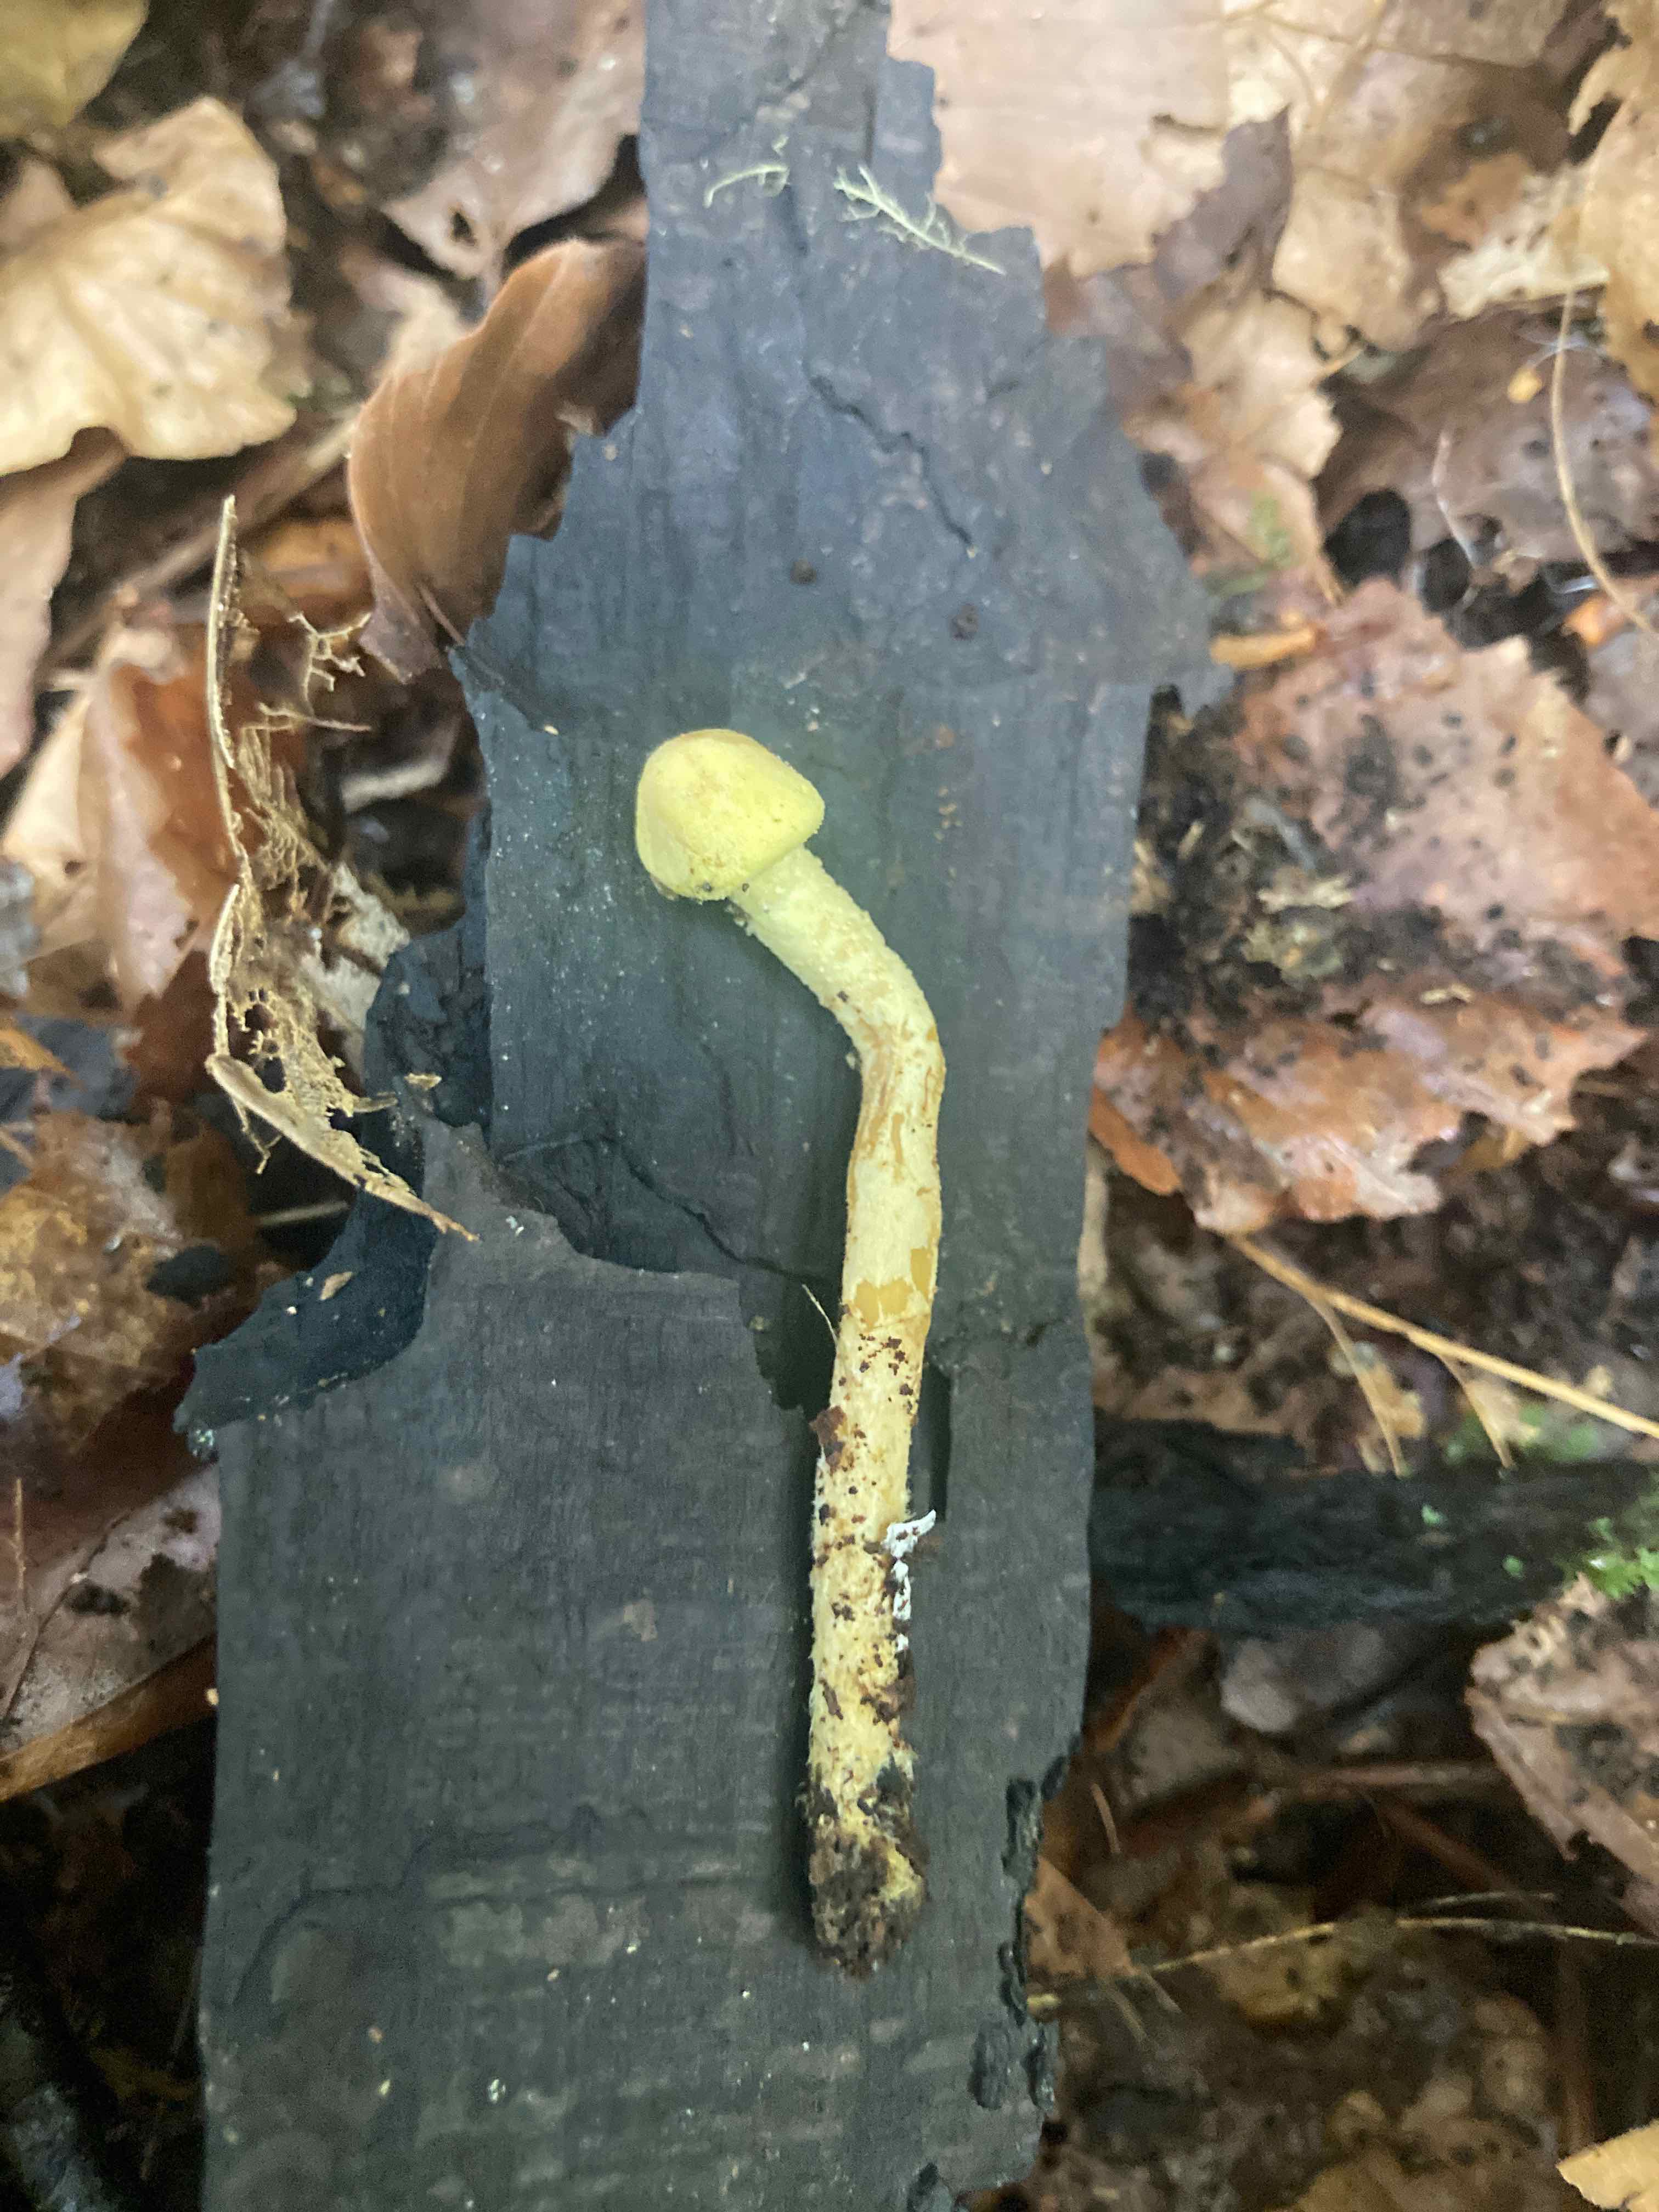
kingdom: Fungi
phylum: Basidiomycota
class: Agaricomycetes
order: Agaricales
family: Agaricaceae
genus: Cystolepiota
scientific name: Cystolepiota icterina
